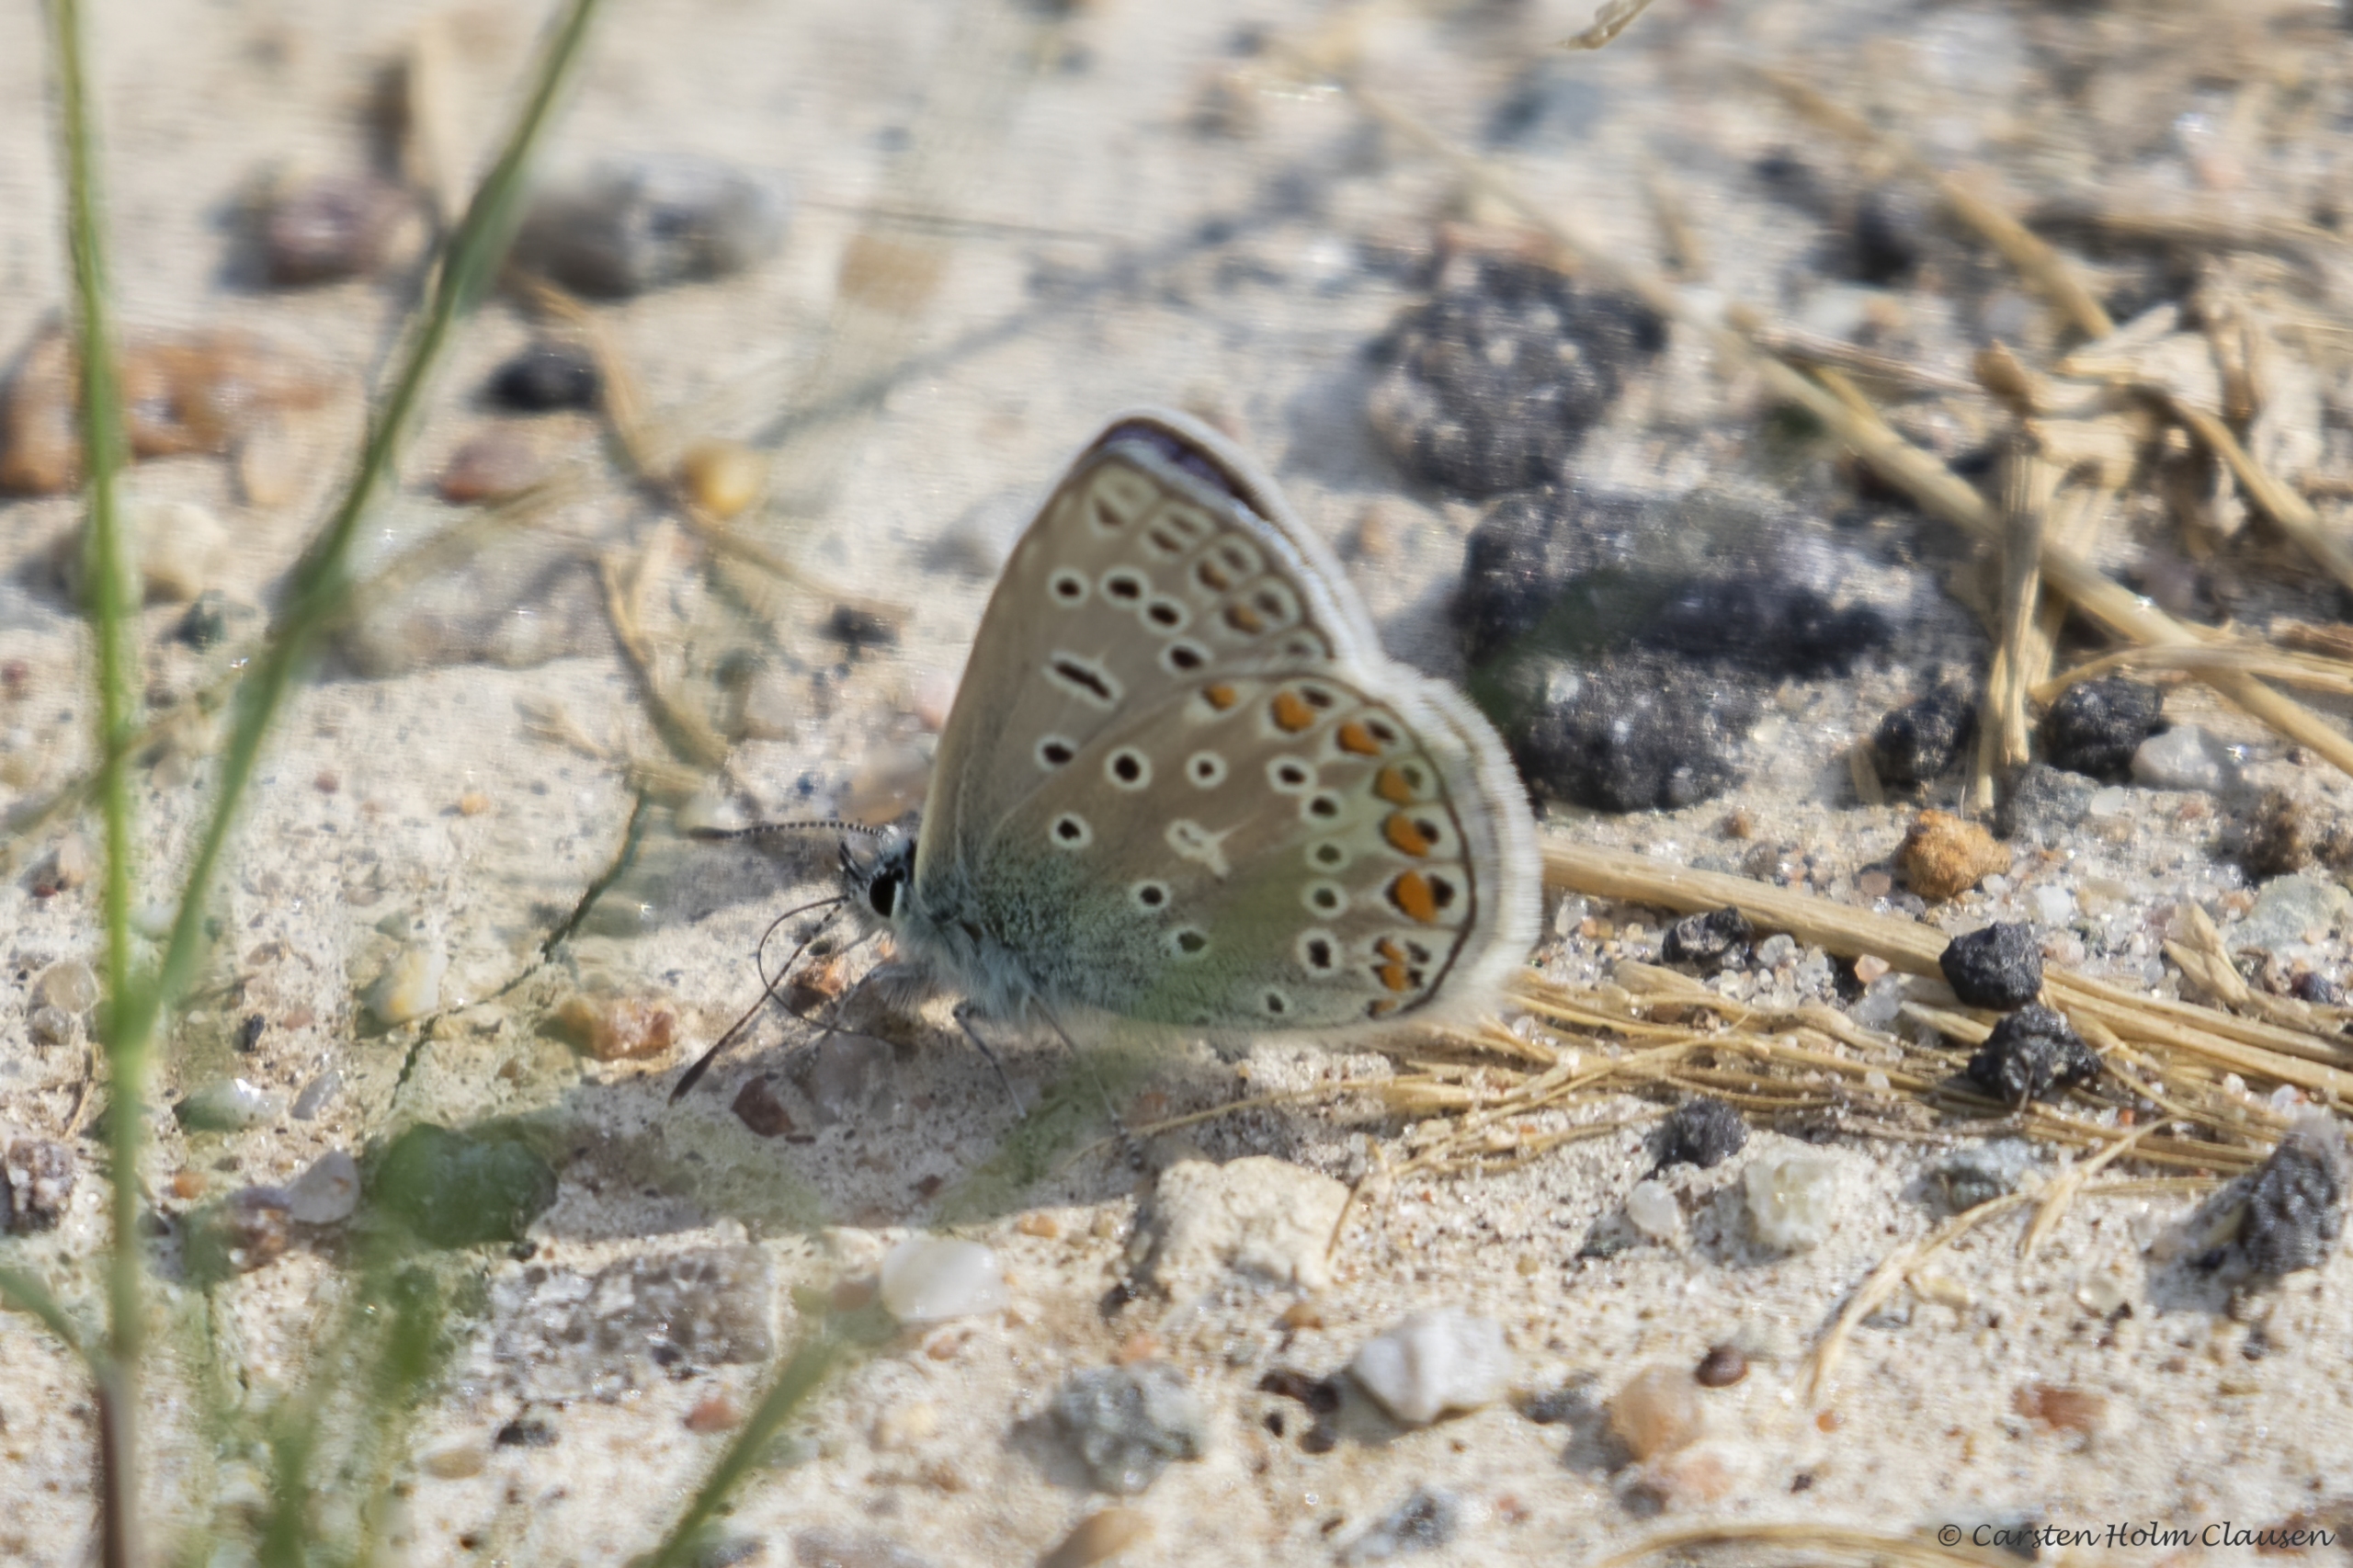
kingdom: Animalia
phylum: Arthropoda
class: Insecta
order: Lepidoptera
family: Lycaenidae
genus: Polyommatus
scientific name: Polyommatus icarus
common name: Almindelig blåfugl
